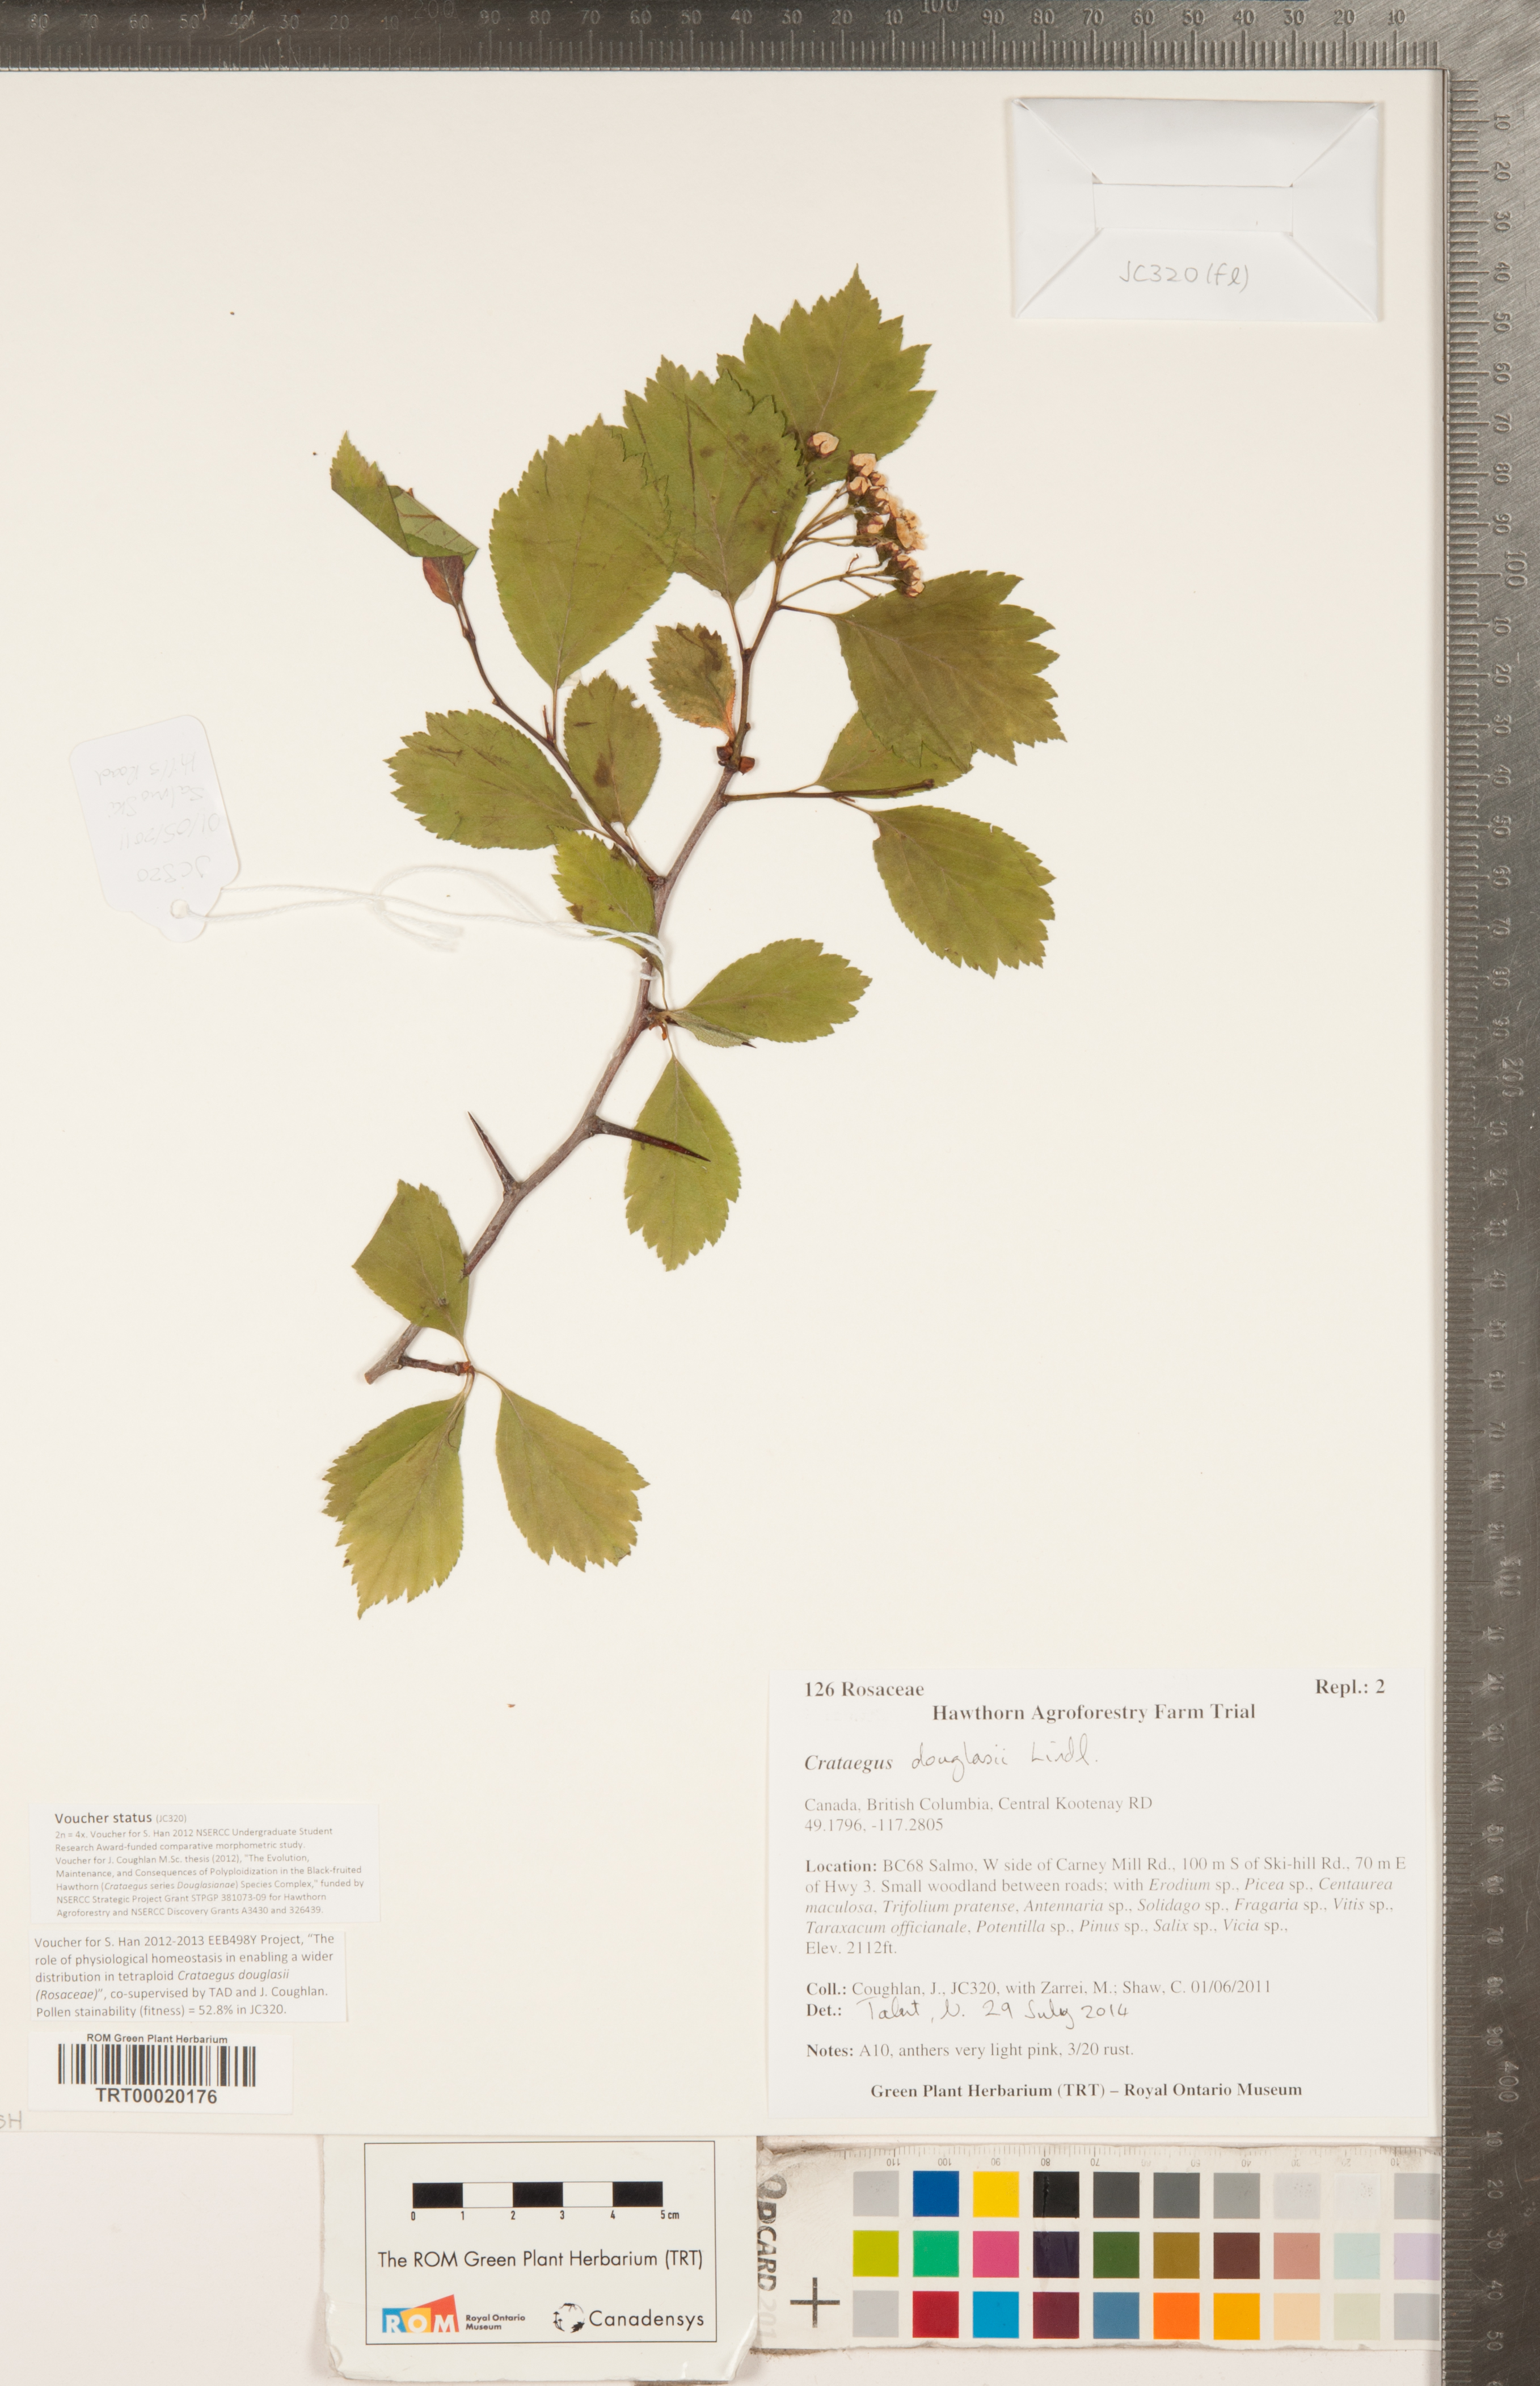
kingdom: Plantae
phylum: Tracheophyta
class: Magnoliopsida
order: Rosales
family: Rosaceae
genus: Crataegus
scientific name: Crataegus douglasii
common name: Black hawthorn
